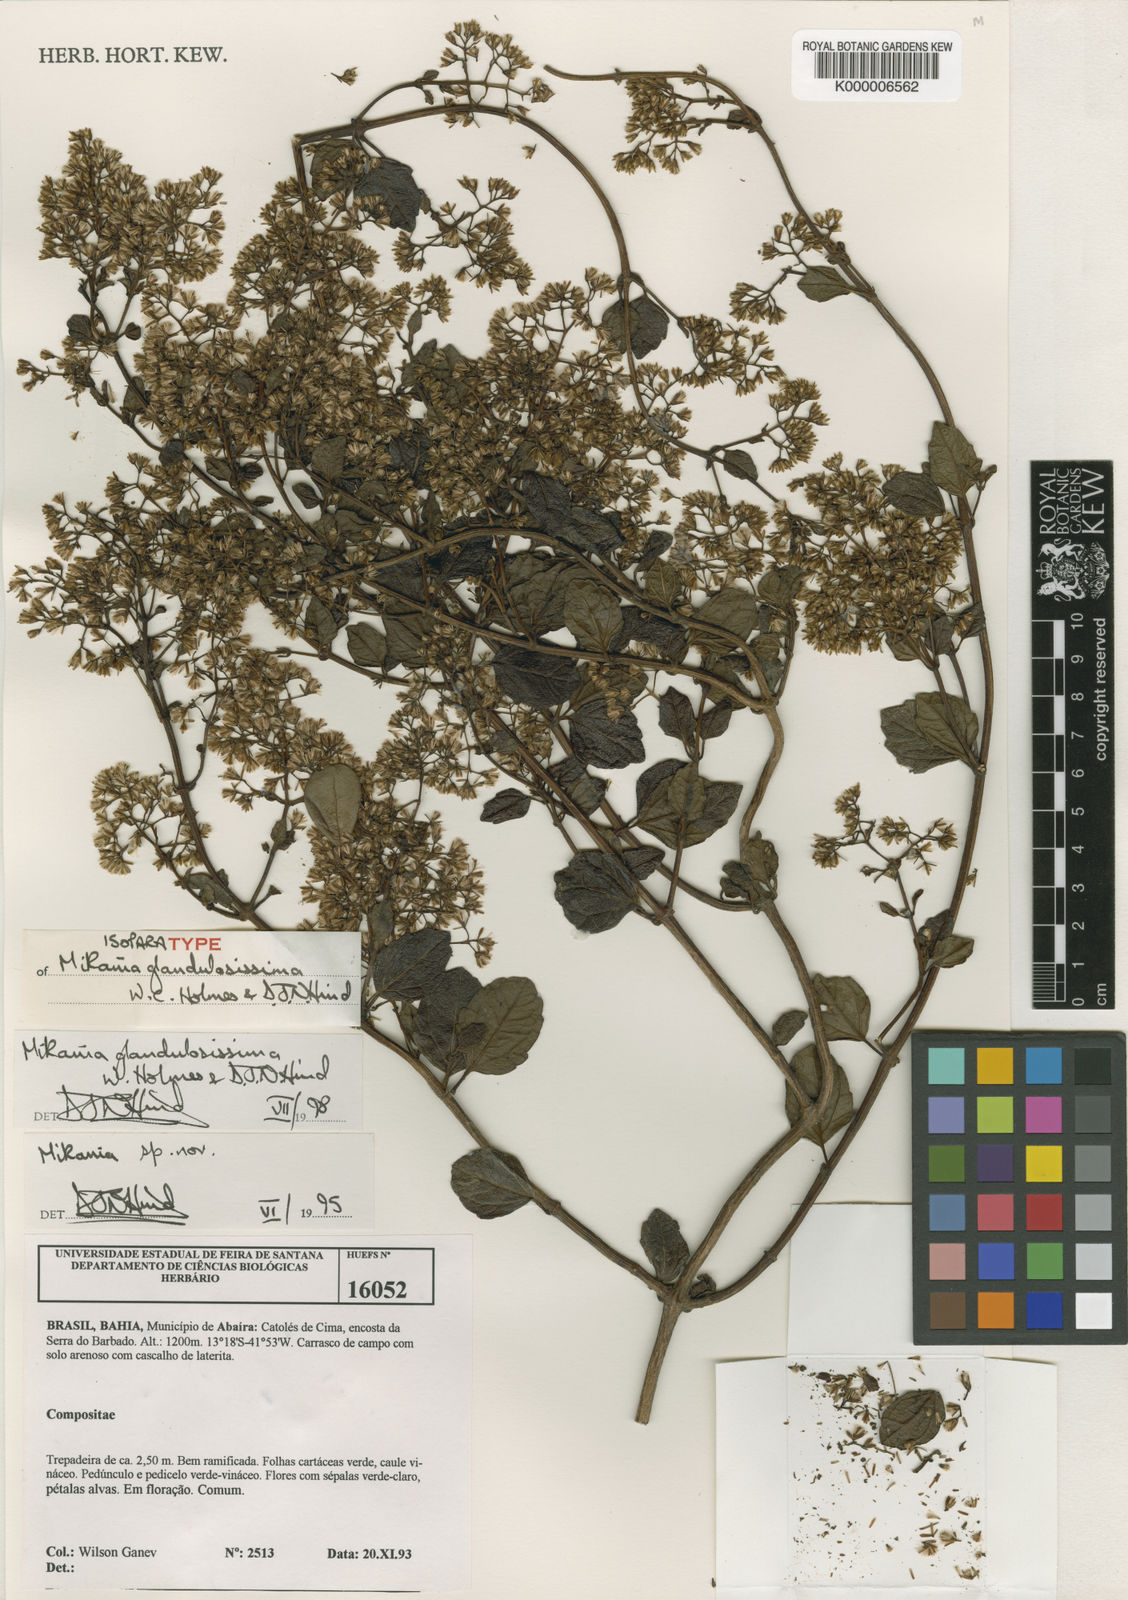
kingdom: Plantae
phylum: Tracheophyta
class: Magnoliopsida
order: Asterales
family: Asteraceae
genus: Mikania
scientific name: Mikania glandulosissima
